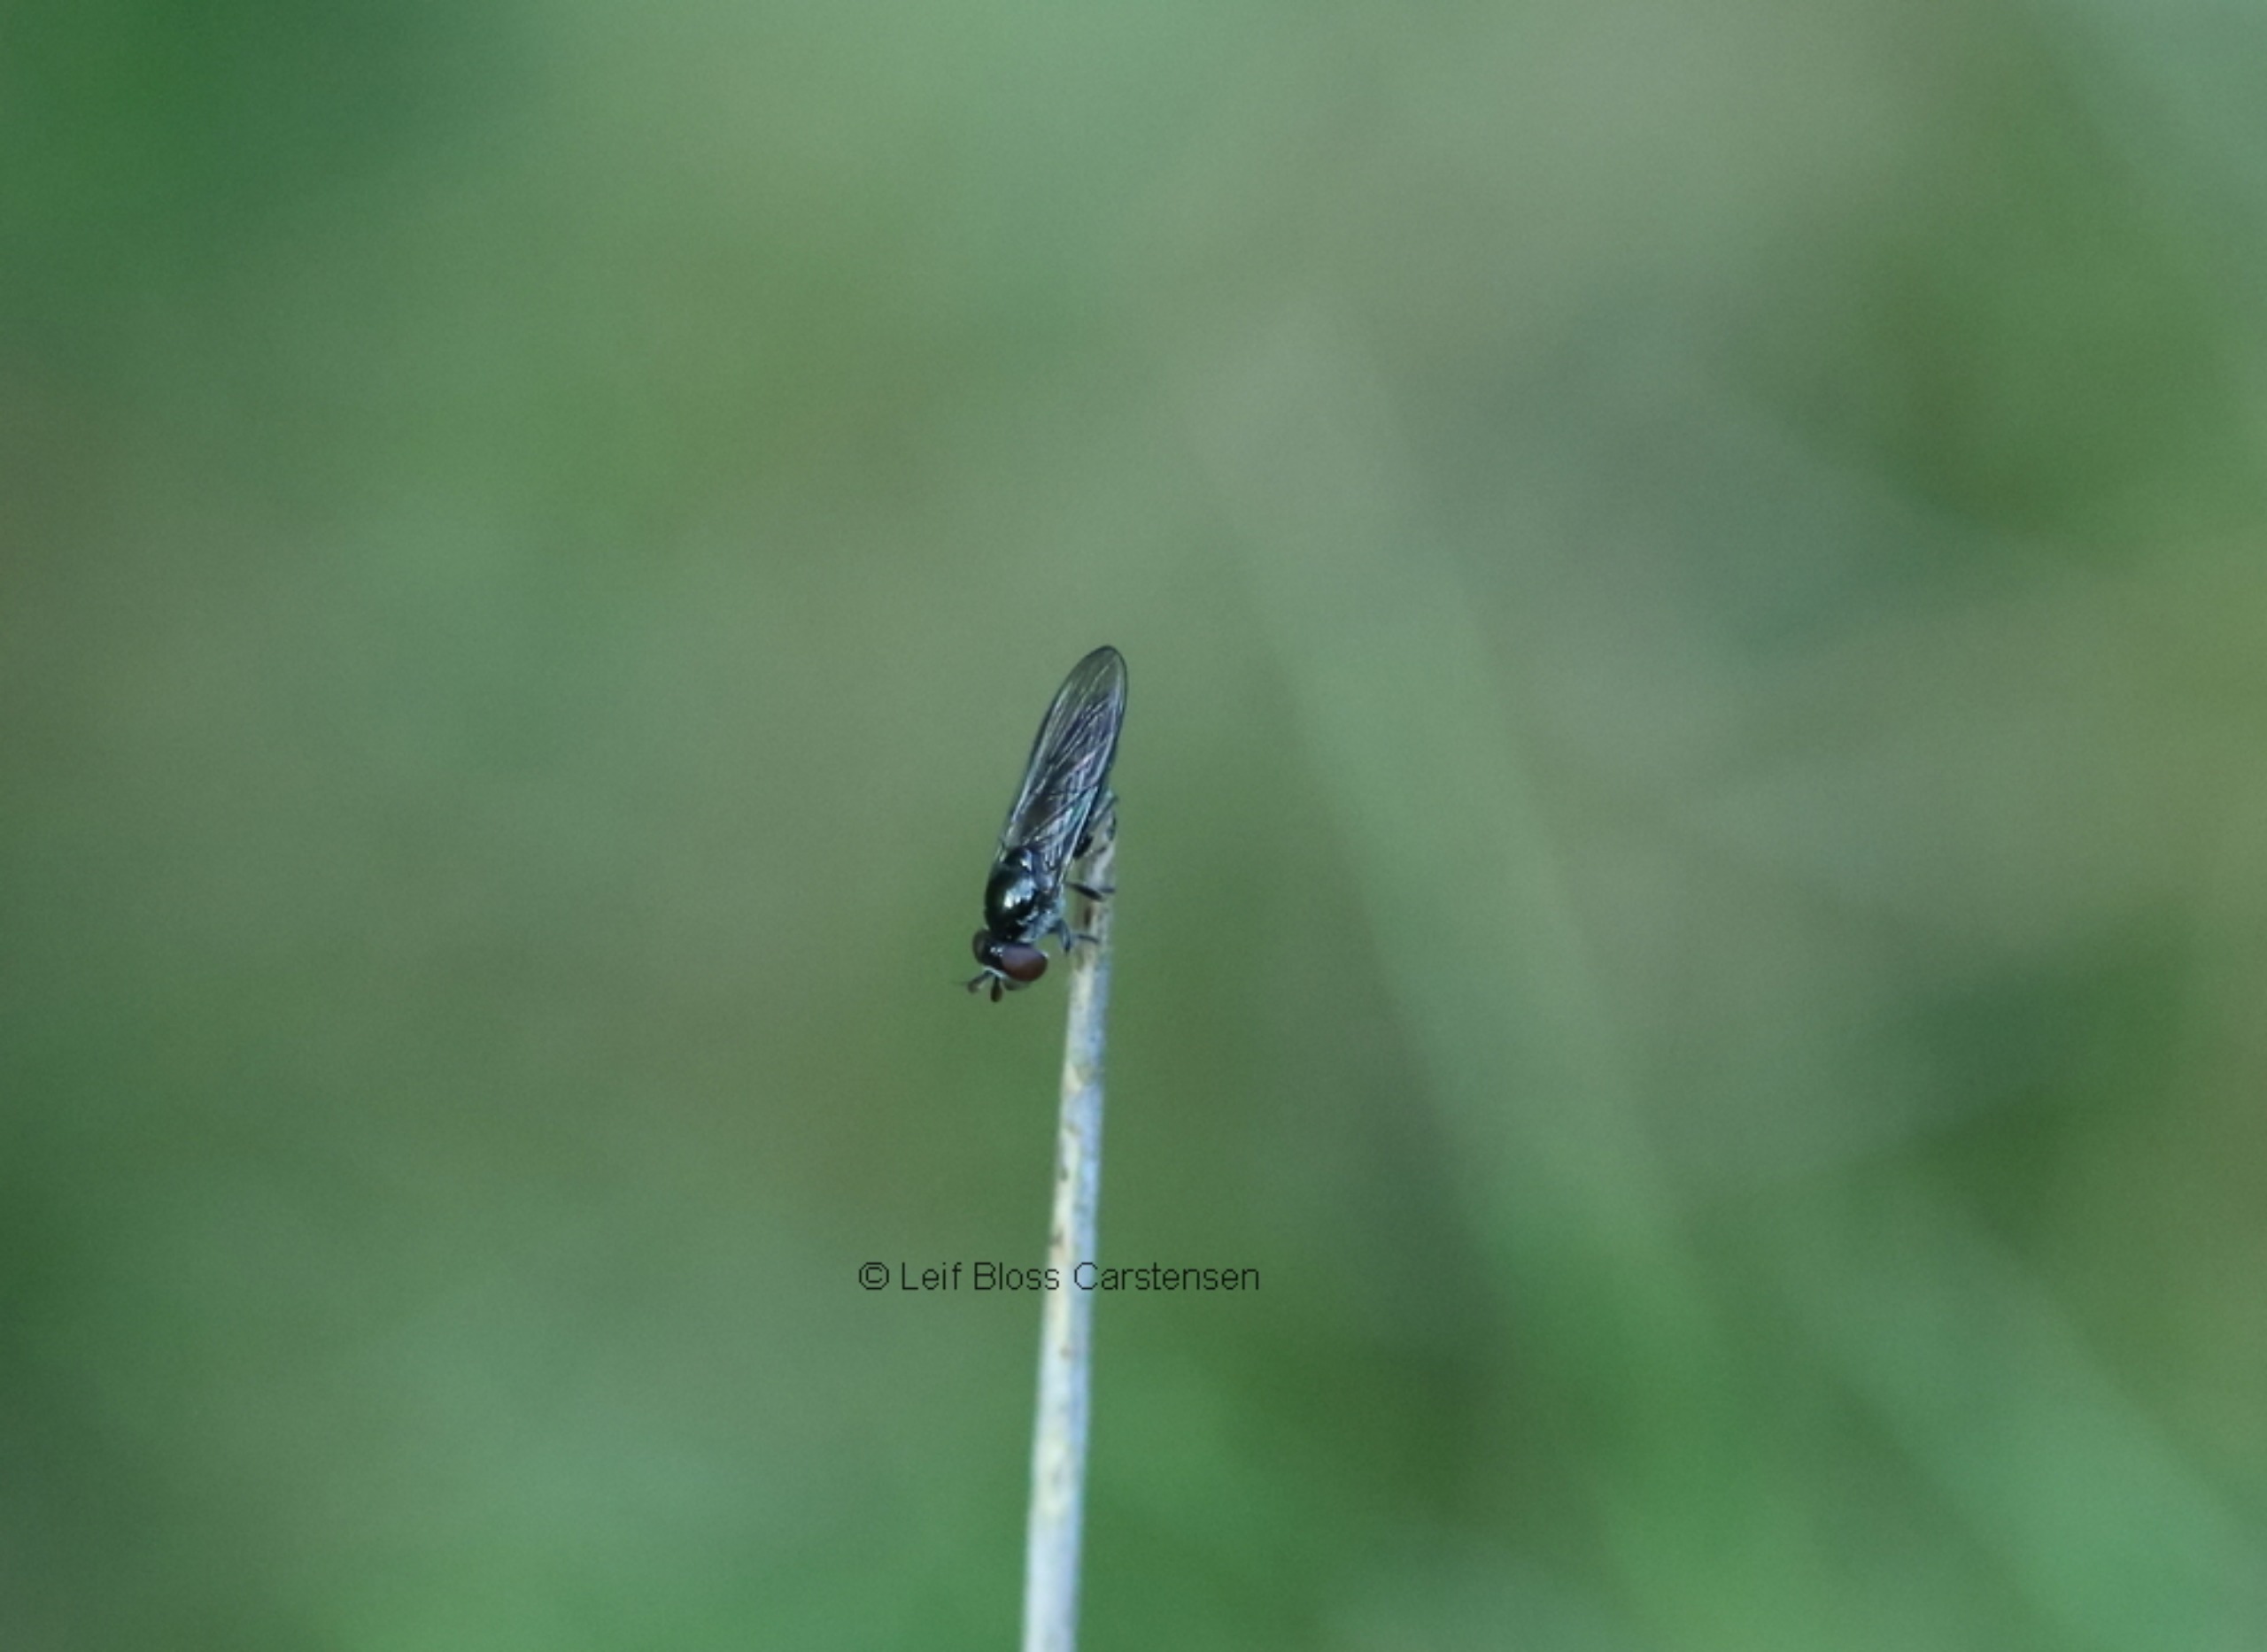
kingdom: Animalia
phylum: Arthropoda
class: Insecta
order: Diptera
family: Syrphidae
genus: Chamaesyrphus
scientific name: Chamaesyrphus lugubris
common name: Dværg-svirreflue
